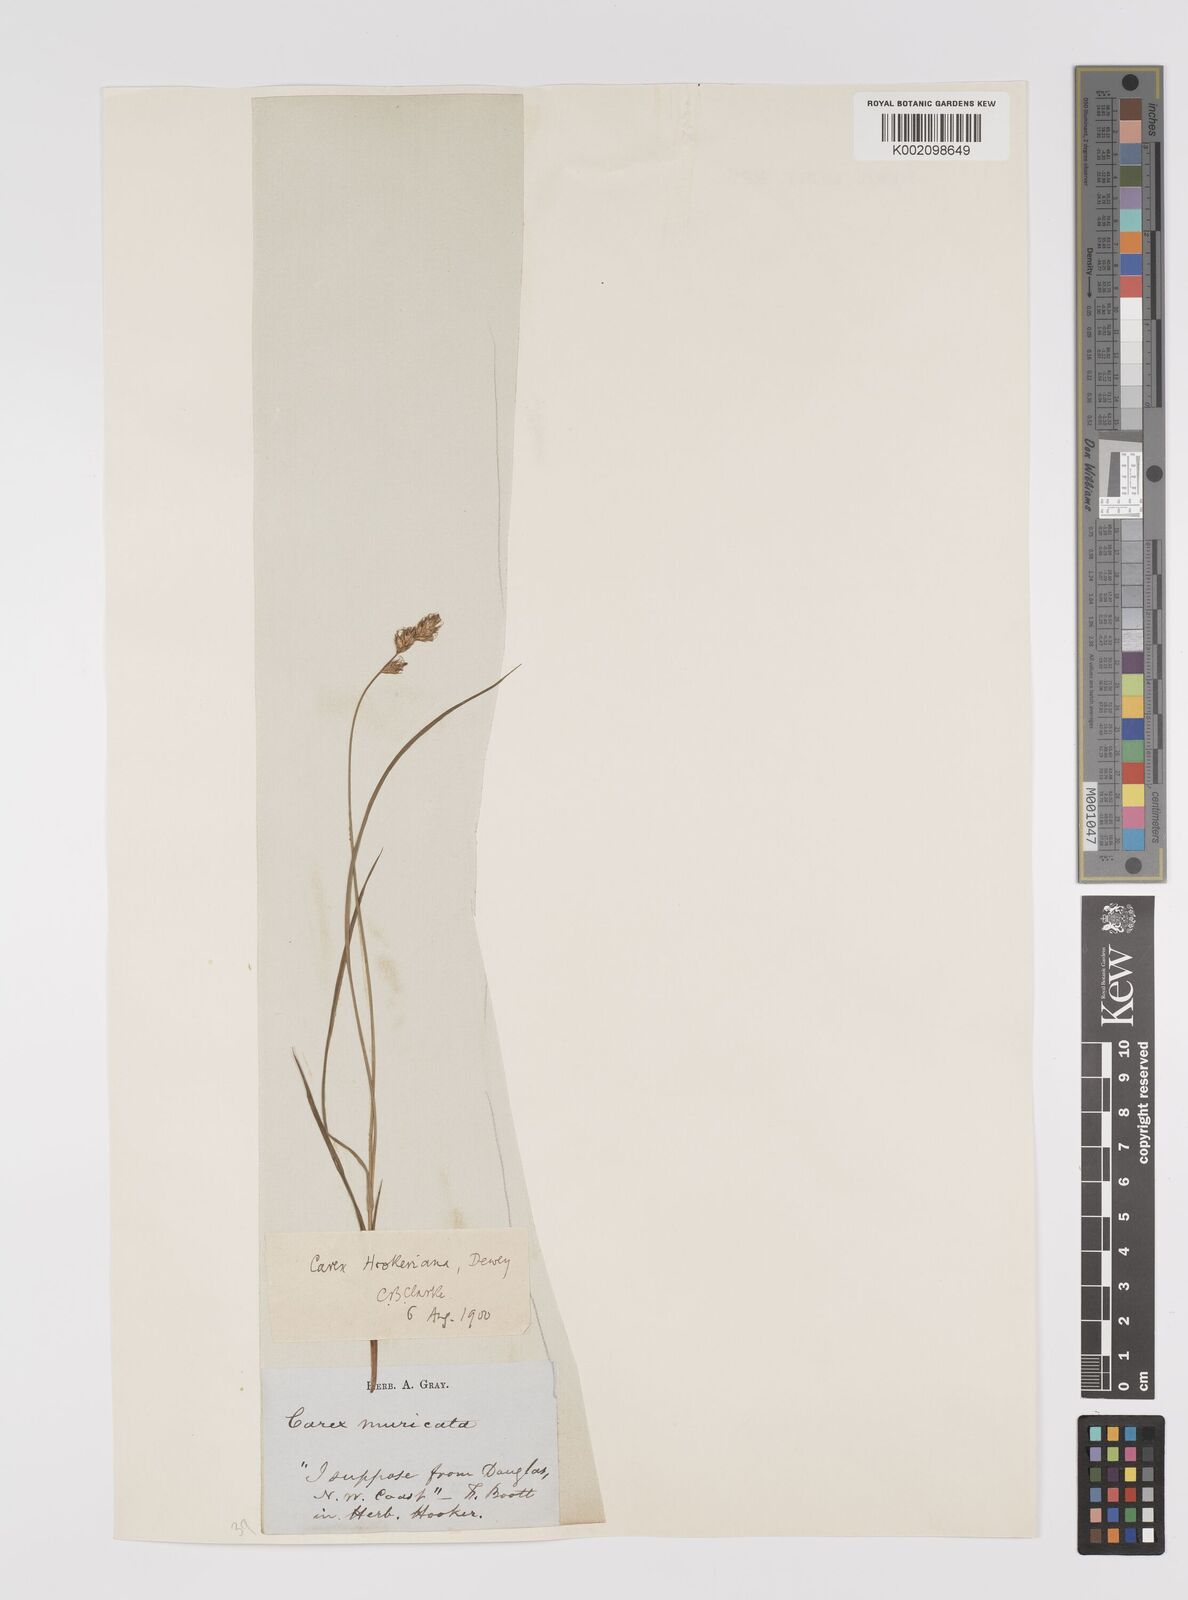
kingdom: Plantae
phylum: Tracheophyta
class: Liliopsida
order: Poales
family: Cyperaceae
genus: Carex
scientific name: Carex hookeriana
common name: Hooker's sedge
